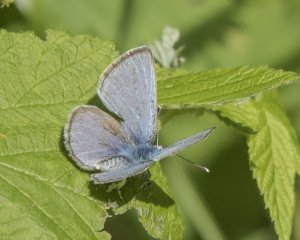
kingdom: Animalia
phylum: Arthropoda
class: Insecta
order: Lepidoptera
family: Lycaenidae
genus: Glaucopsyche
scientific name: Glaucopsyche lygdamus
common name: Silvery Blue
